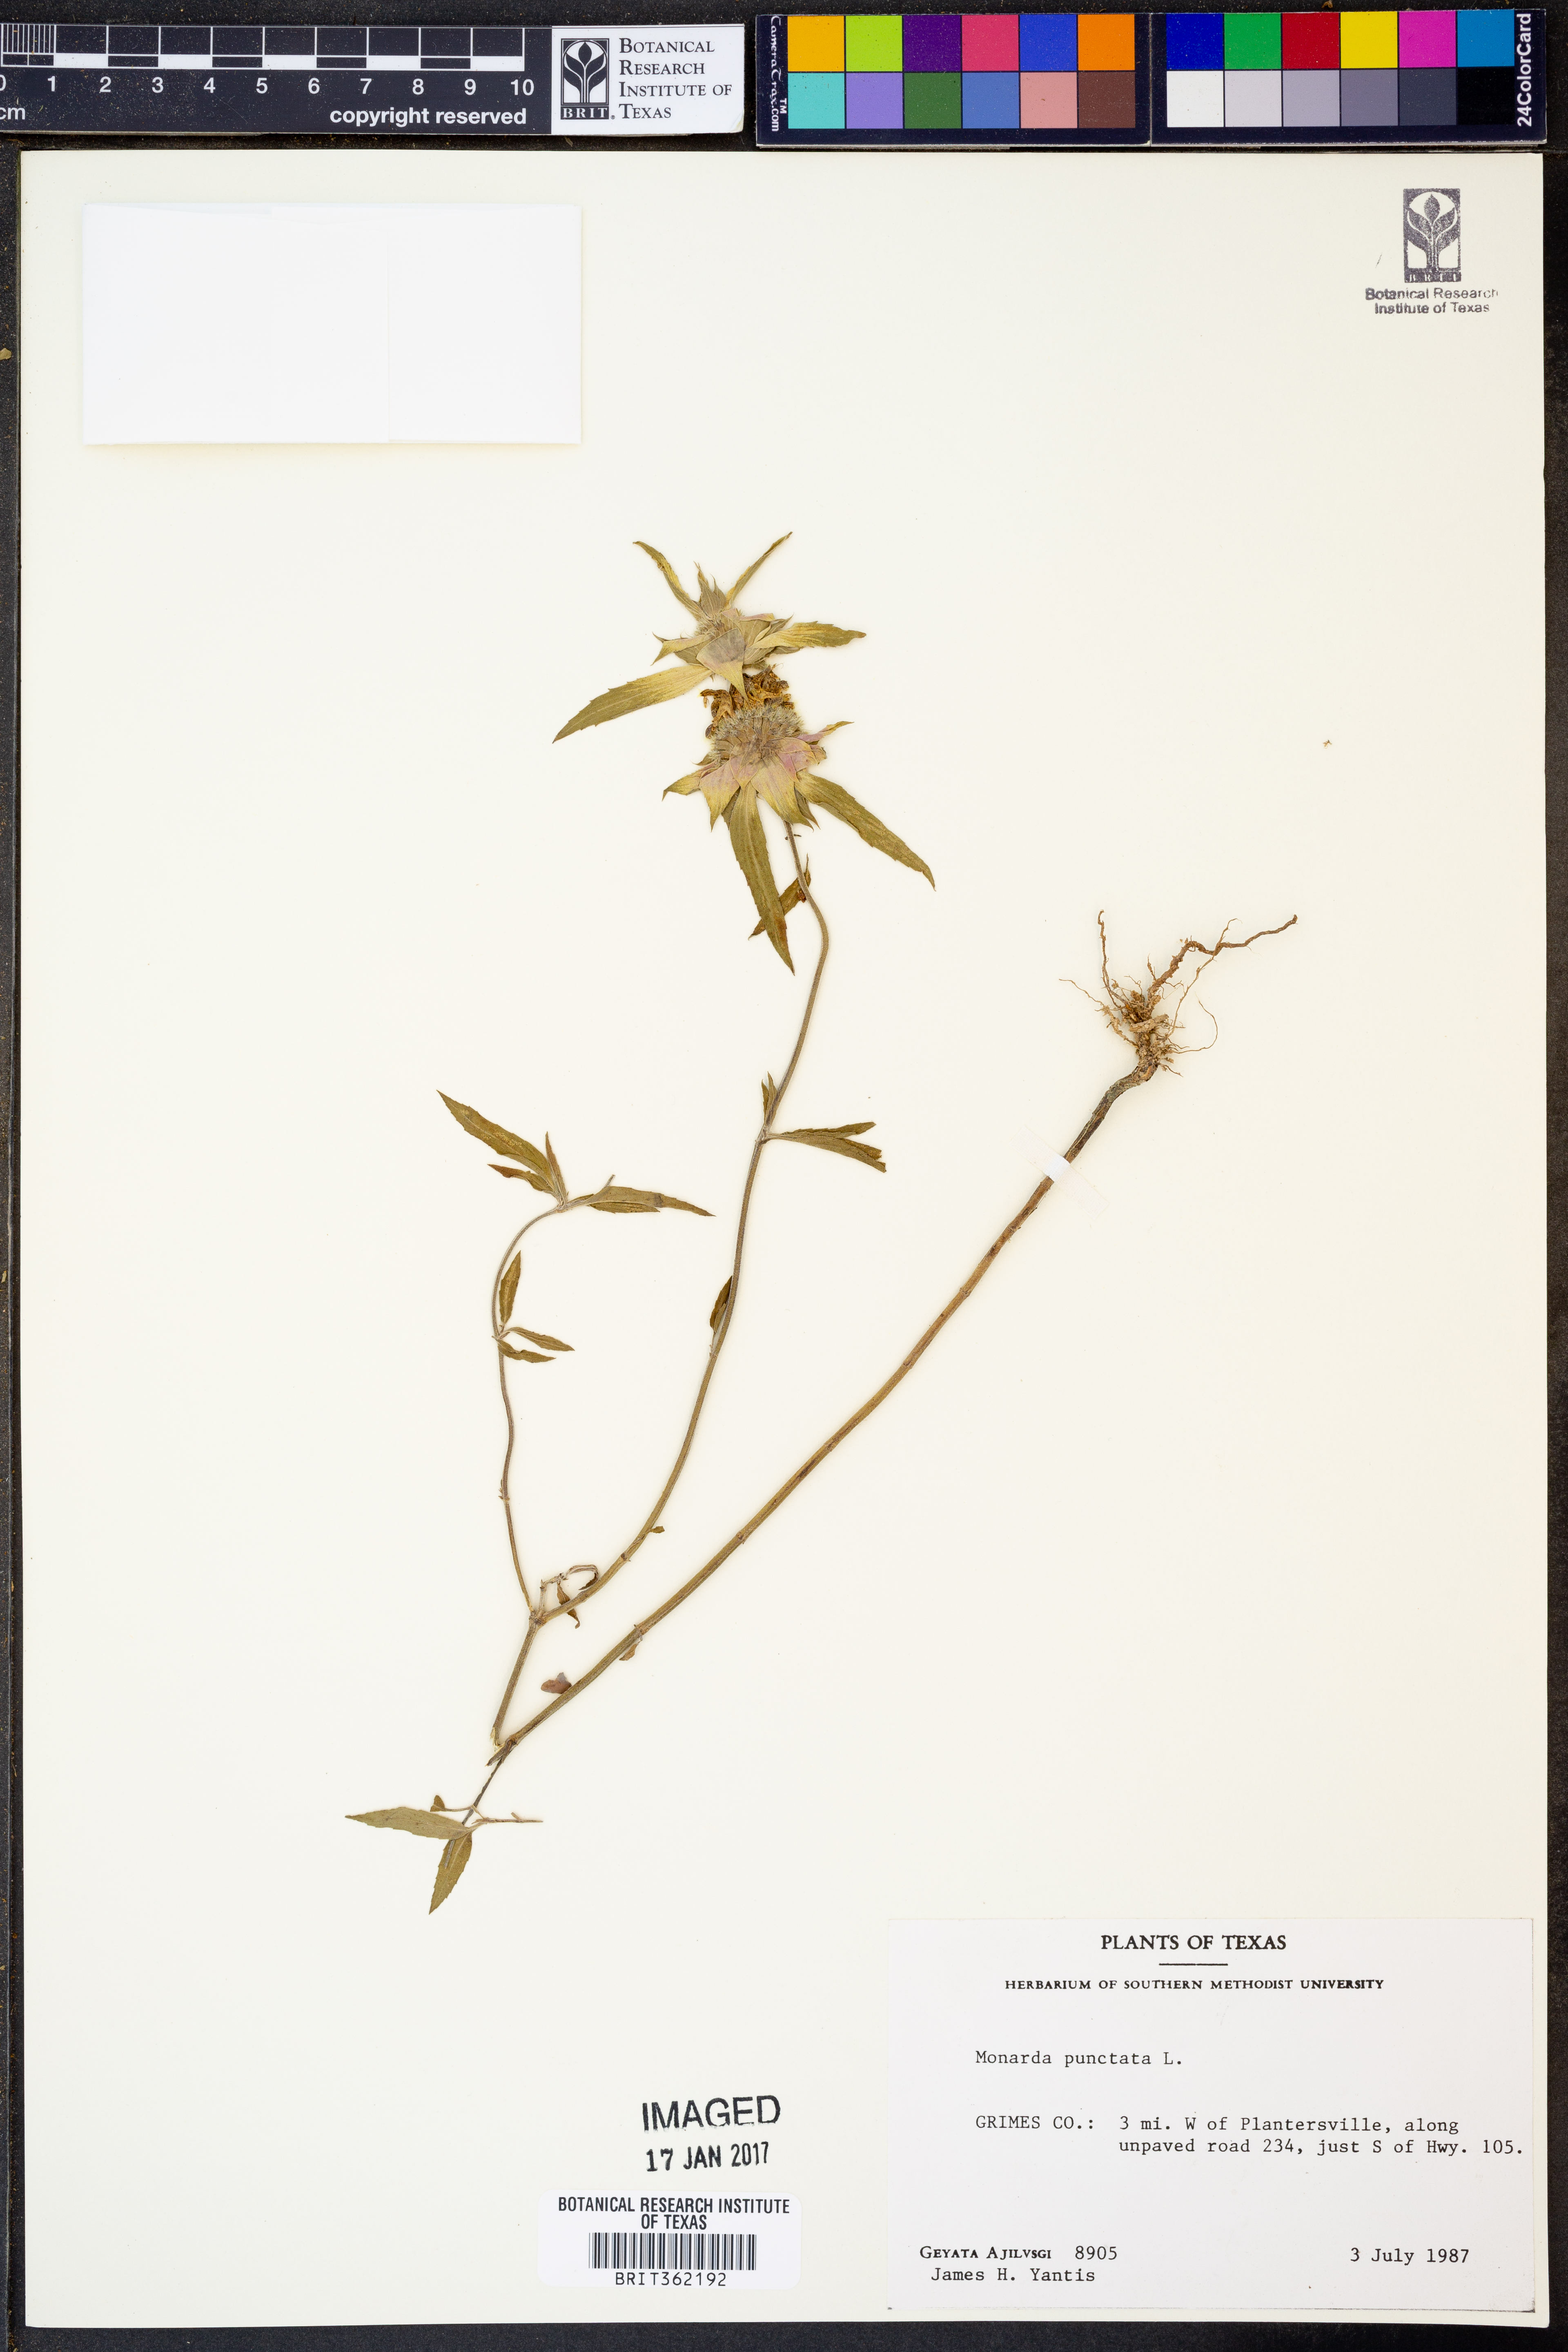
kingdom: Plantae
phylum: Tracheophyta
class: Magnoliopsida
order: Lamiales
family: Lamiaceae
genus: Monarda
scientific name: Monarda punctata
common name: Dotted monarda
